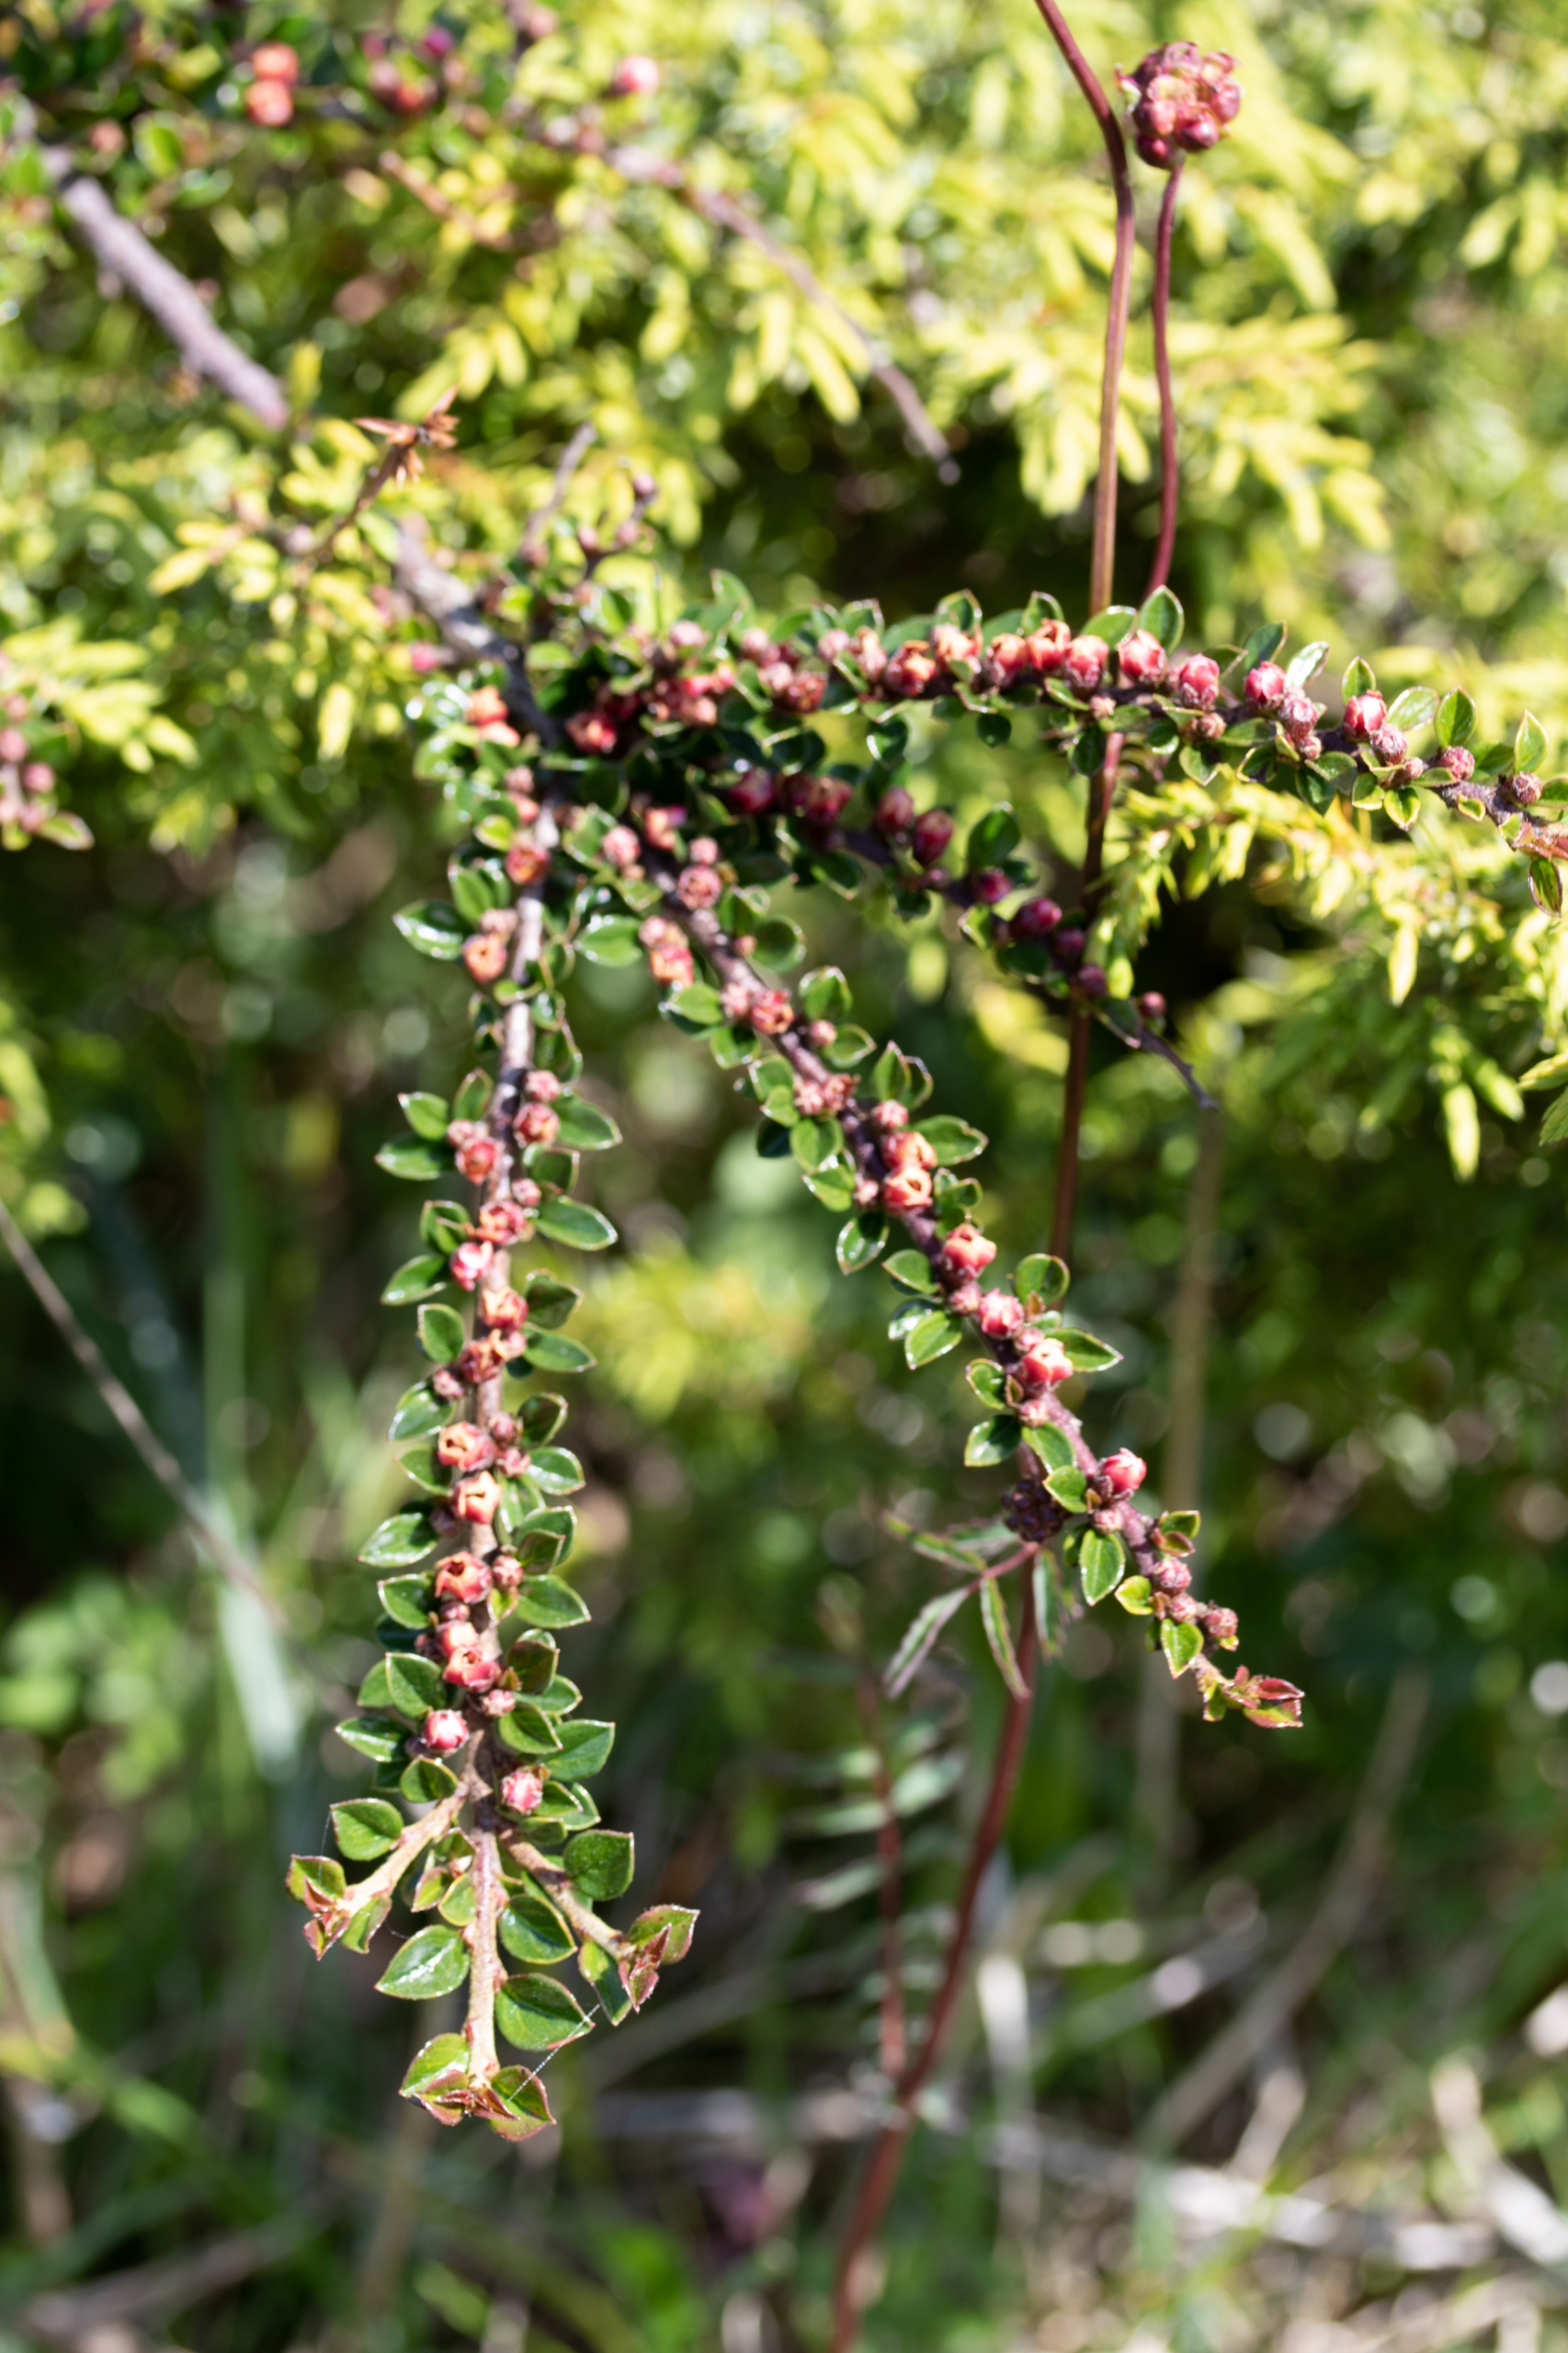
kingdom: Plantae
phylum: Tracheophyta
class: Magnoliopsida
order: Rosales
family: Rosaceae
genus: Cotoneaster
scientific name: Cotoneaster horizontalis
